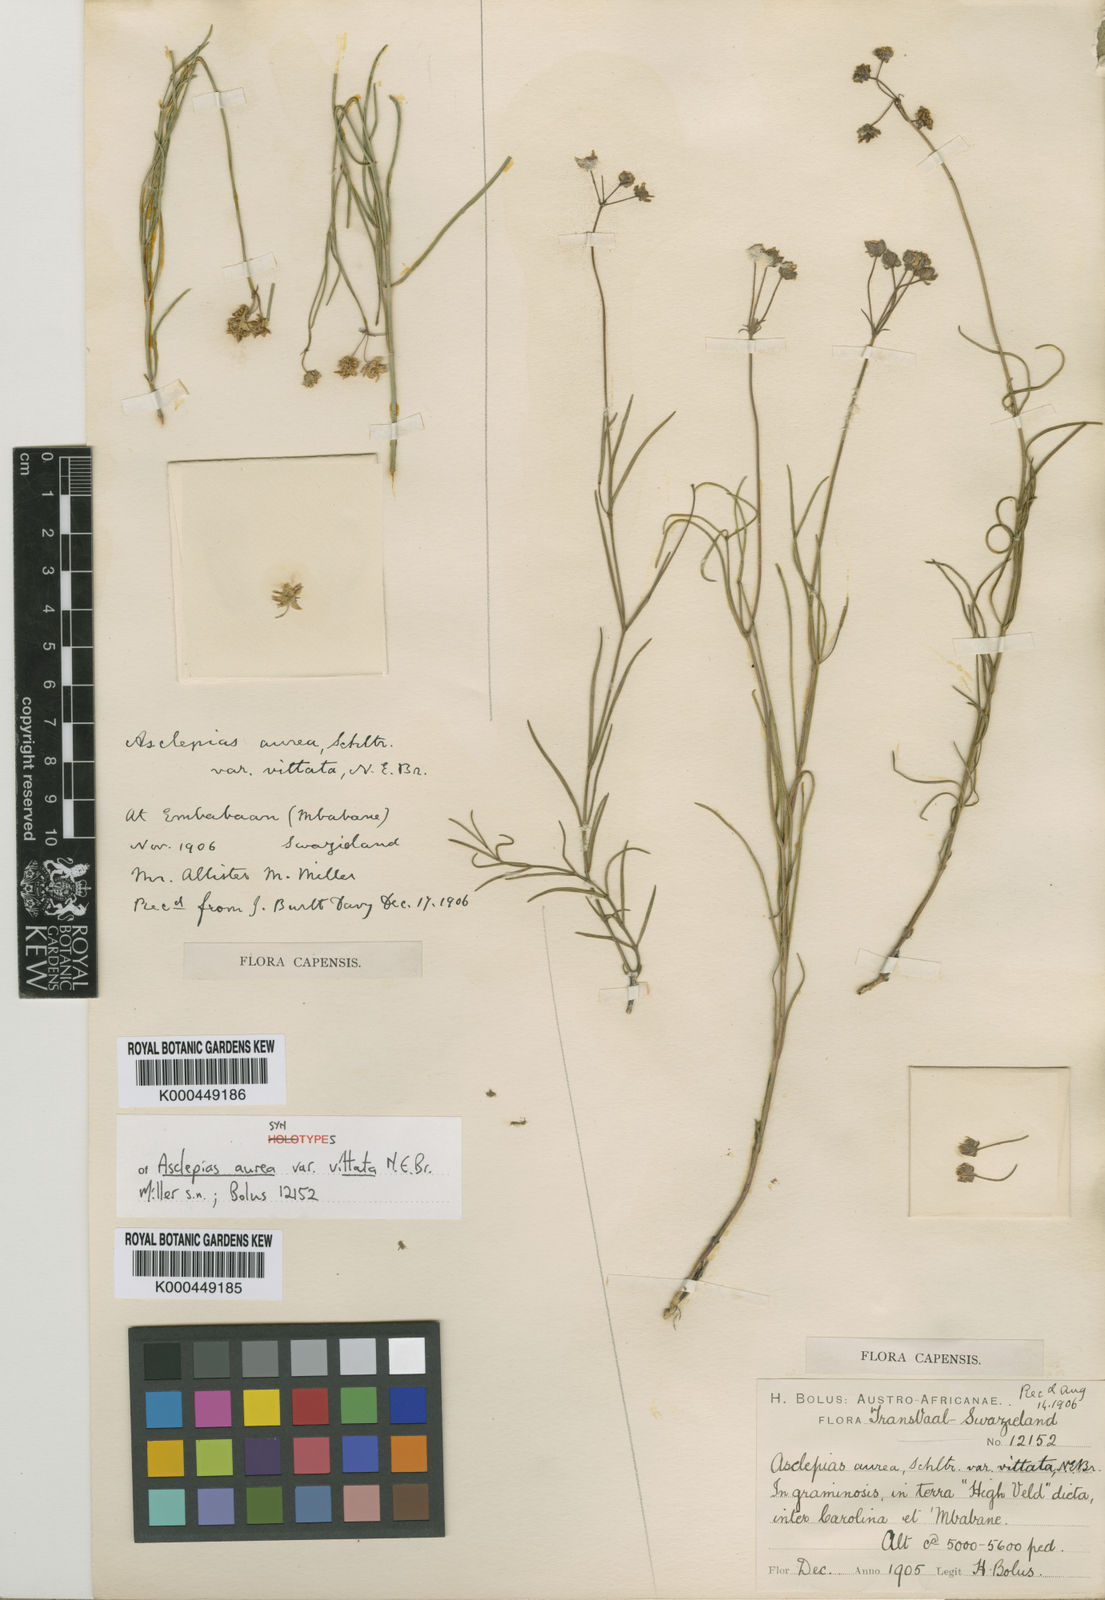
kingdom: Plantae
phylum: Tracheophyta
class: Magnoliopsida
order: Gentianales
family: Apocynaceae
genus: Asclepias
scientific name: Asclepias aurea
